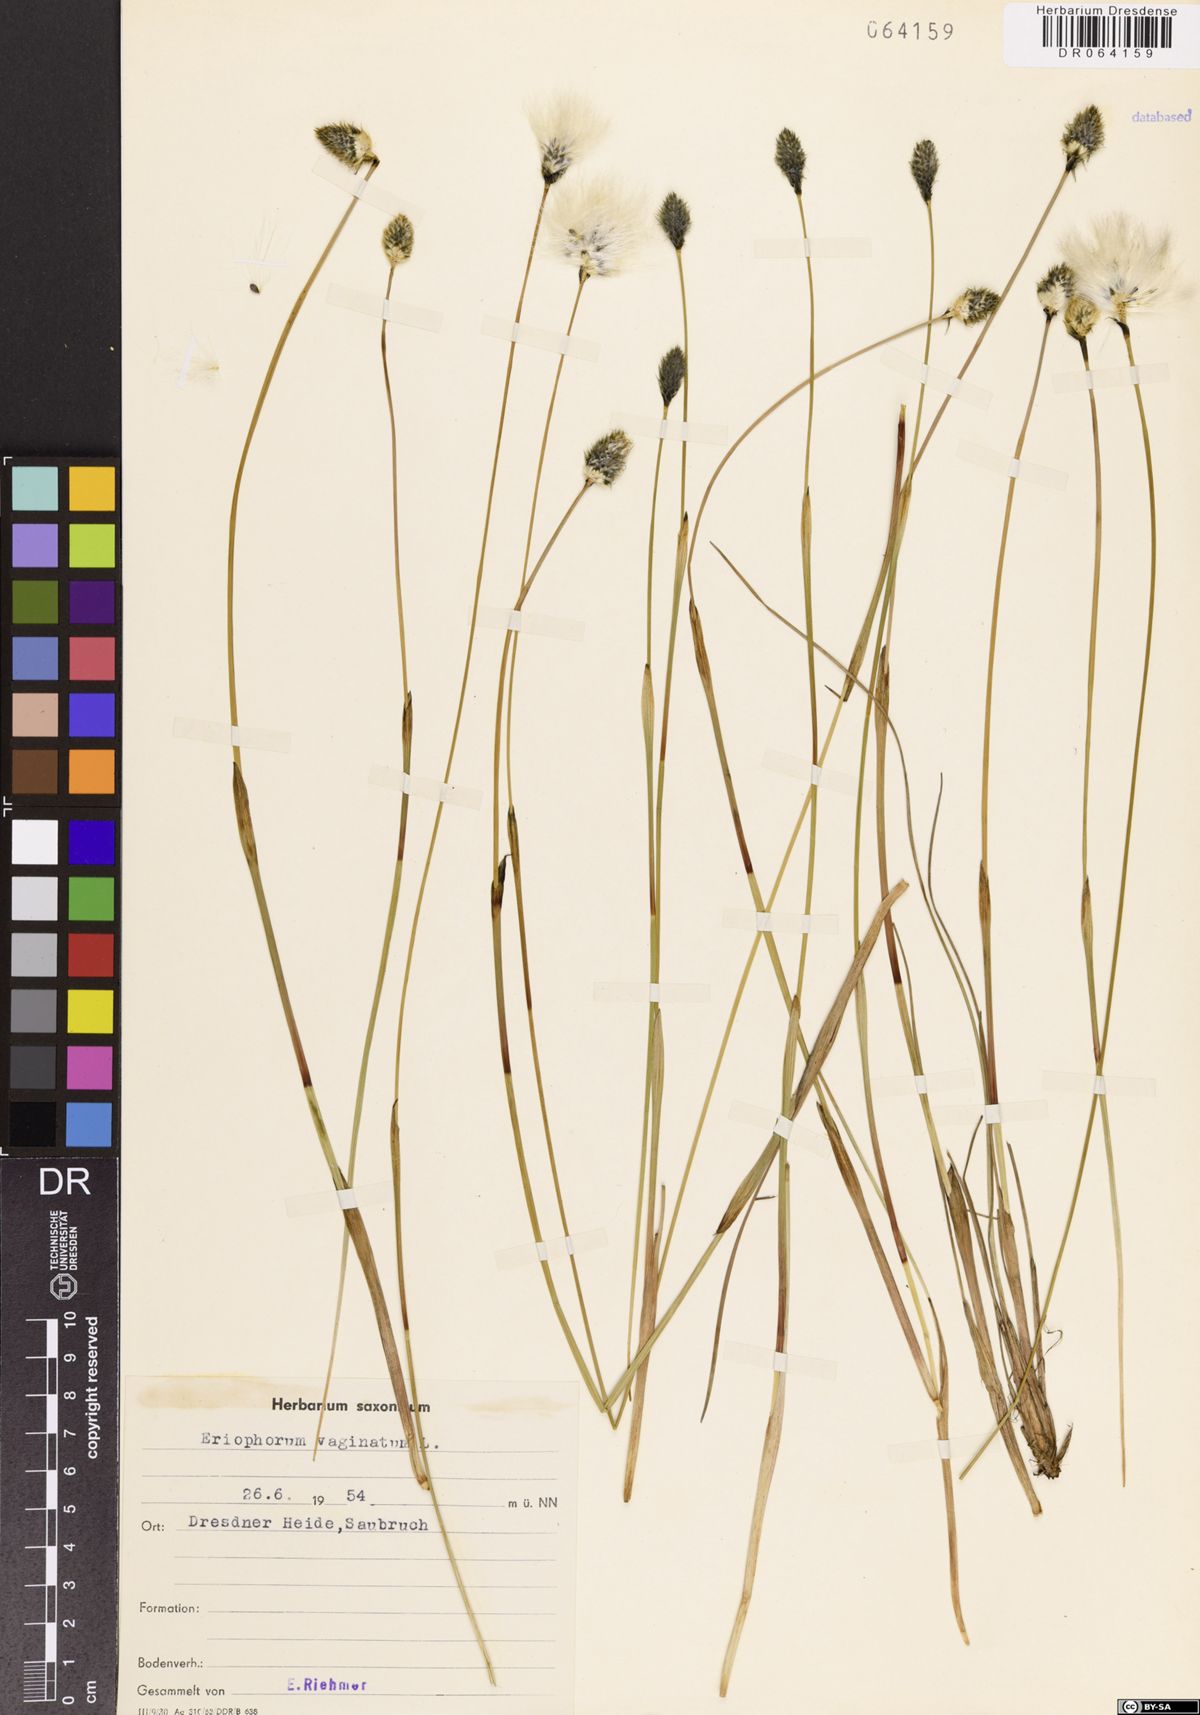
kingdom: Plantae
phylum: Tracheophyta
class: Liliopsida
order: Poales
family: Cyperaceae
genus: Eriophorum
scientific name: Eriophorum vaginatum
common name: Hare's-tail cottongrass
